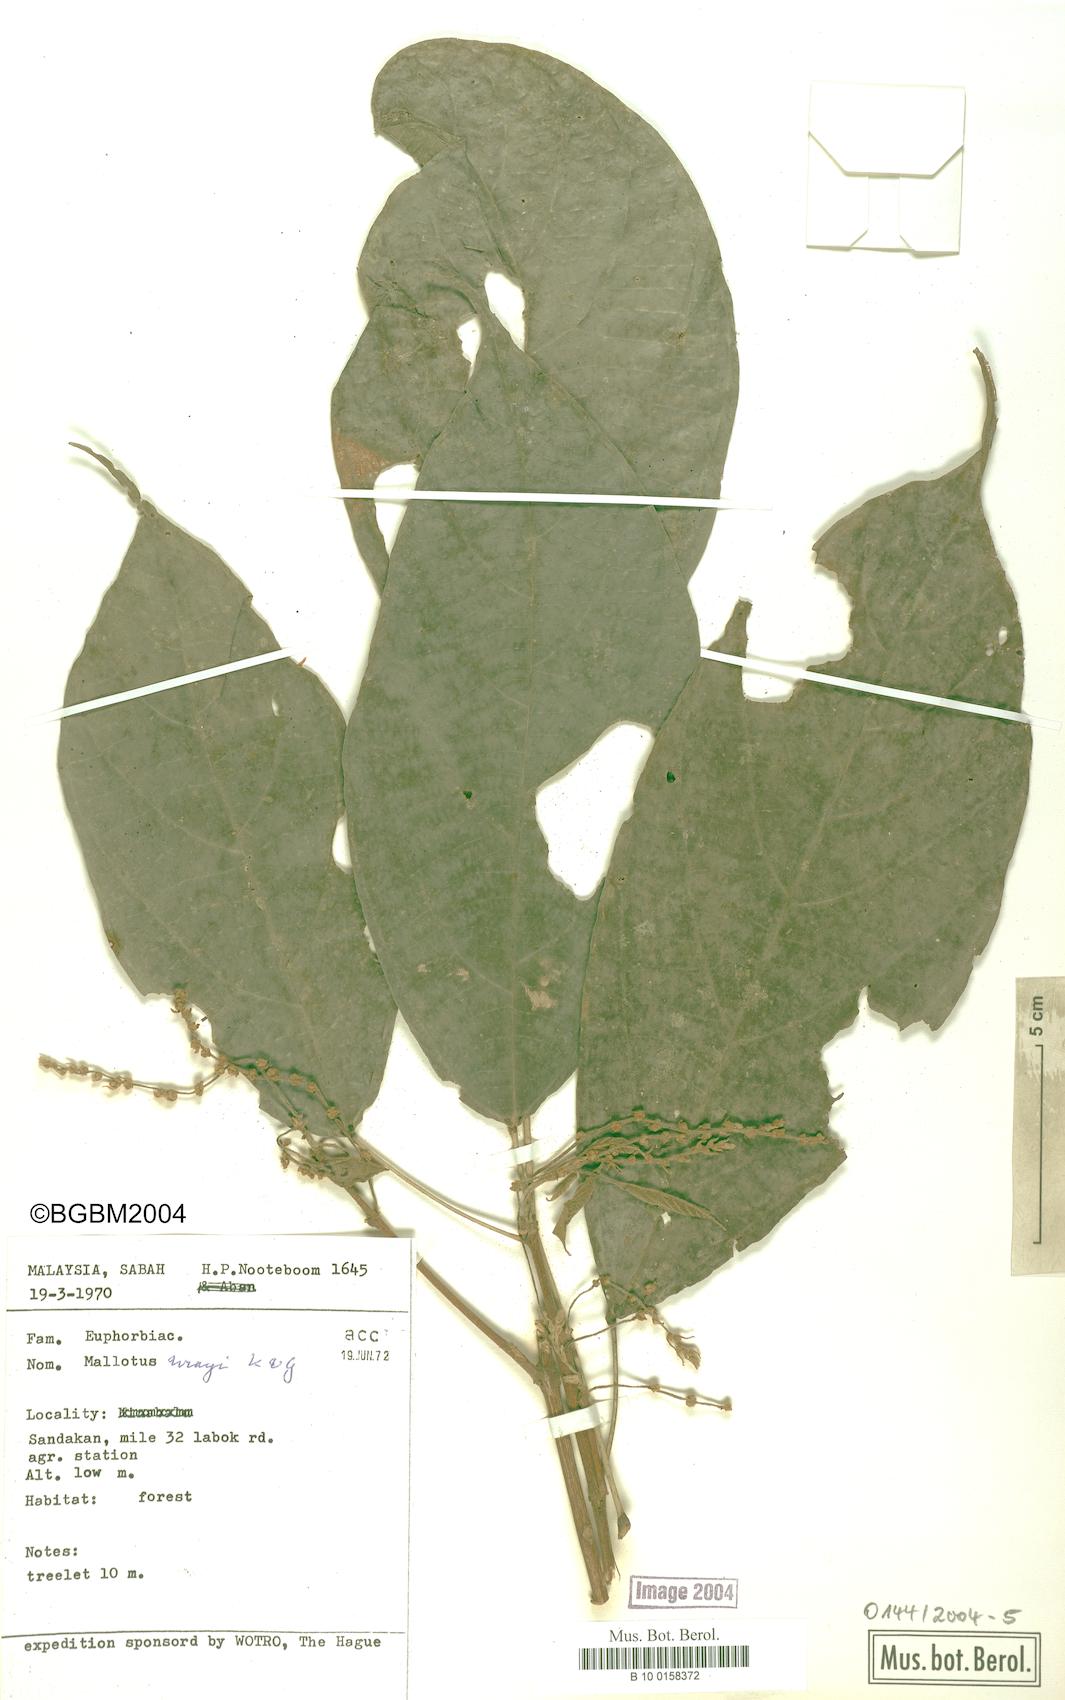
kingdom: Plantae
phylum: Tracheophyta
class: Magnoliopsida
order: Malpighiales
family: Euphorbiaceae
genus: Mallotus
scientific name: Mallotus wrayi
